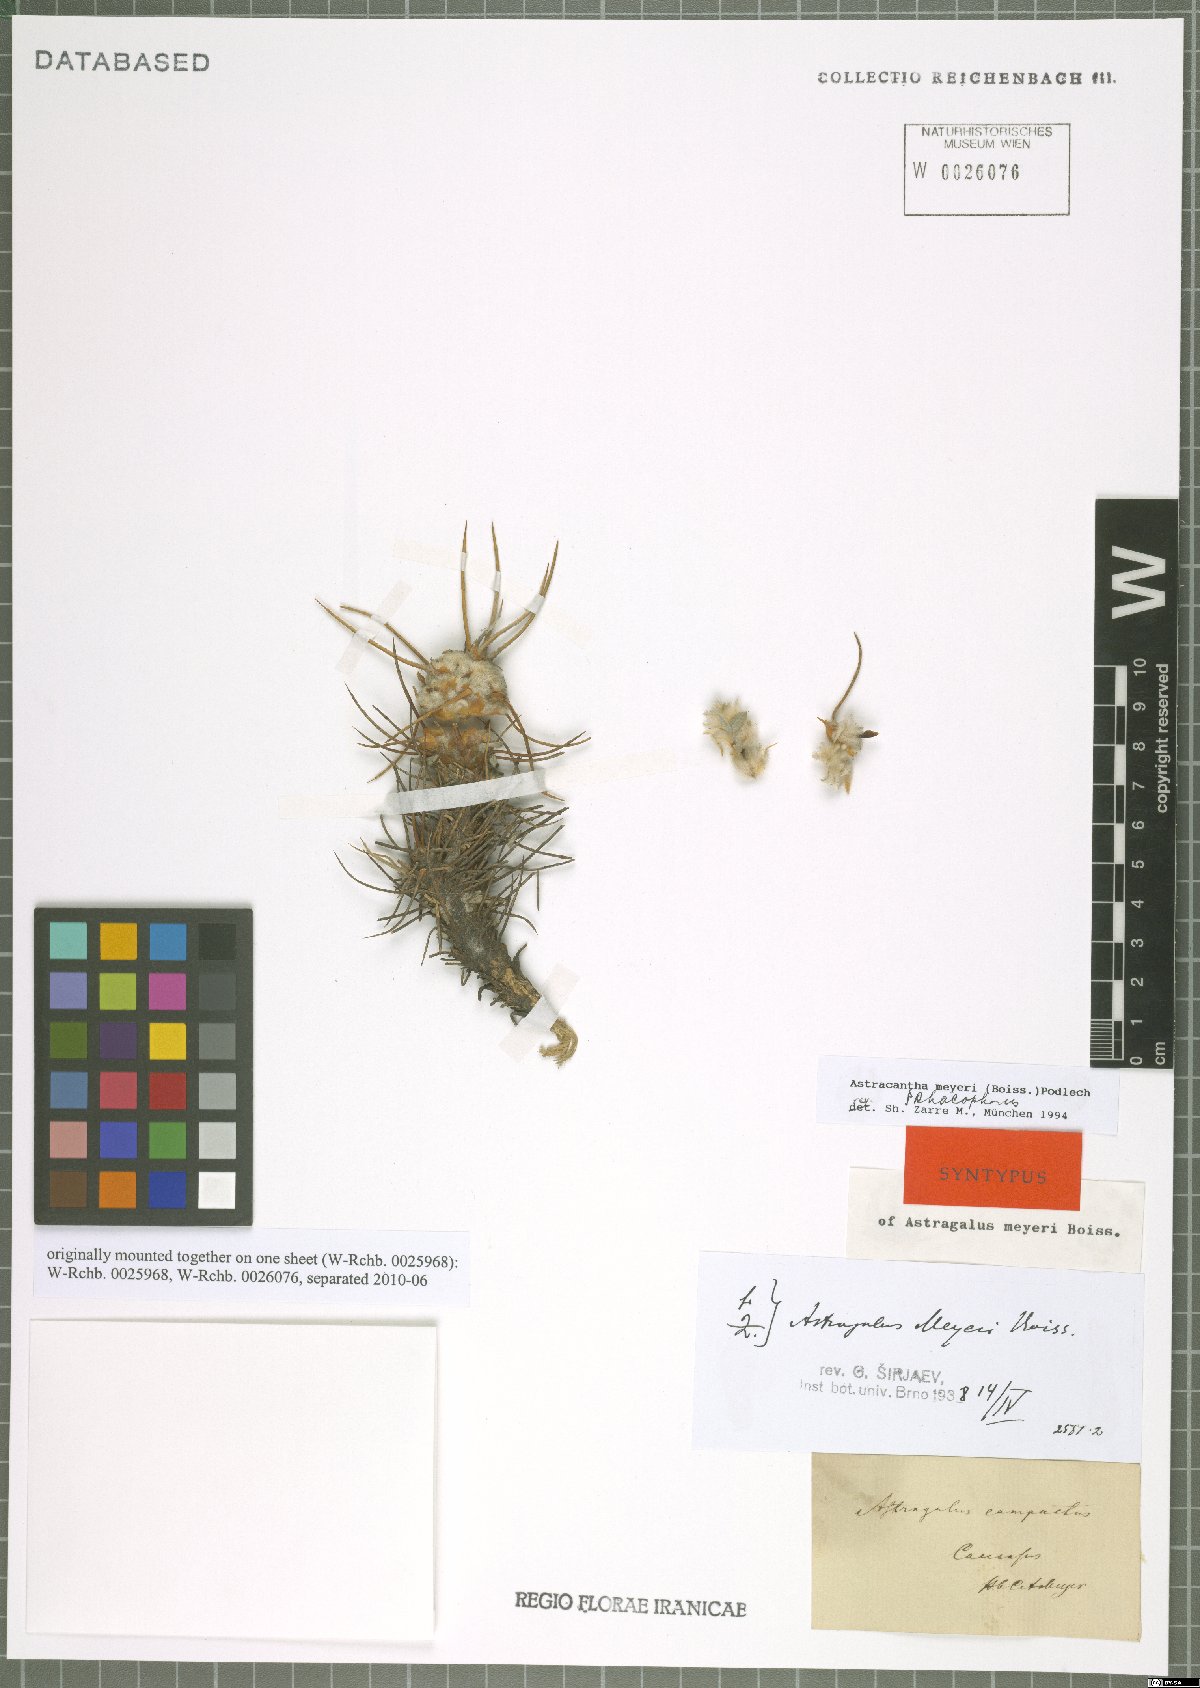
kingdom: Plantae
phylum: Tracheophyta
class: Magnoliopsida
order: Fabales
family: Fabaceae
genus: Astragalus
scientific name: Astragalus meyeri
